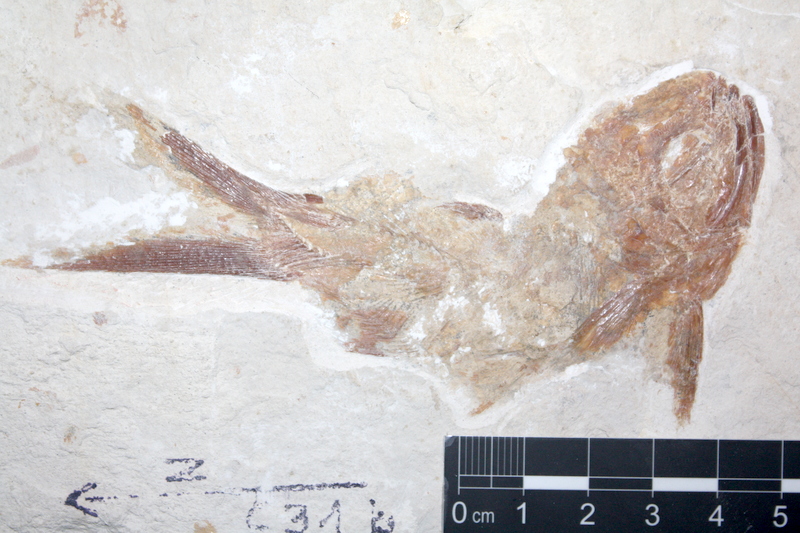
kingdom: Animalia
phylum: Chordata
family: Eurycormidae
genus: Eurycormus
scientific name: Eurycormus speciosus
